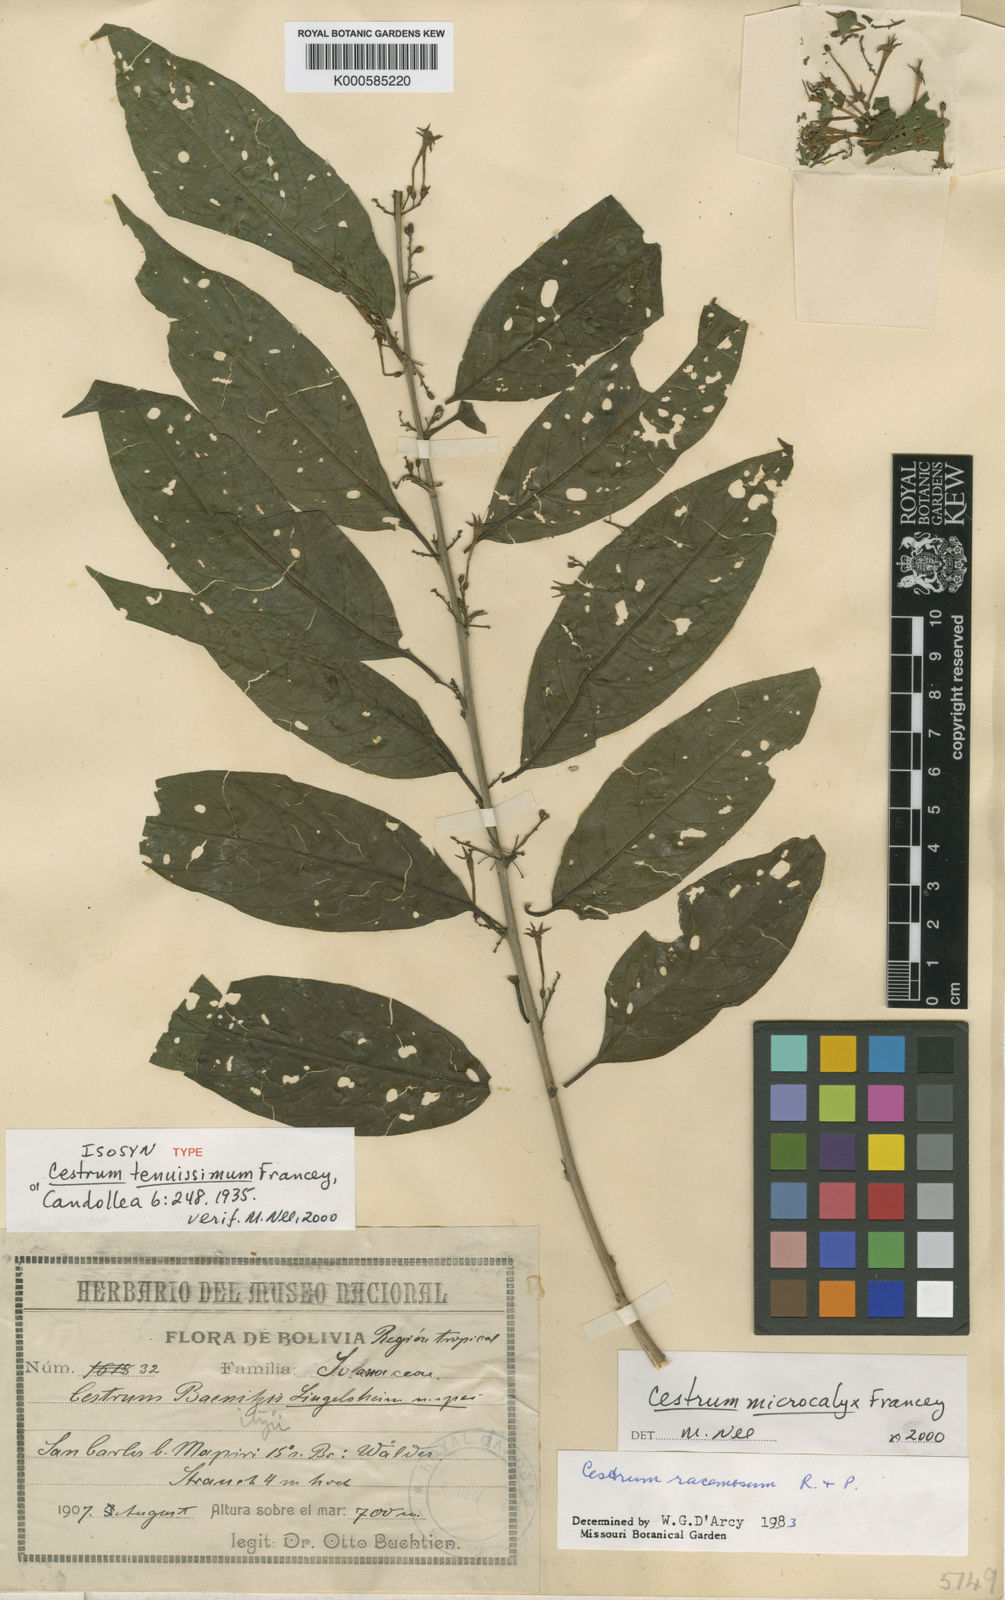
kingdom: Plantae
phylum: Tracheophyta
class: Magnoliopsida
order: Solanales
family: Solanaceae
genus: Cestrum
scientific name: Cestrum microcalyx
